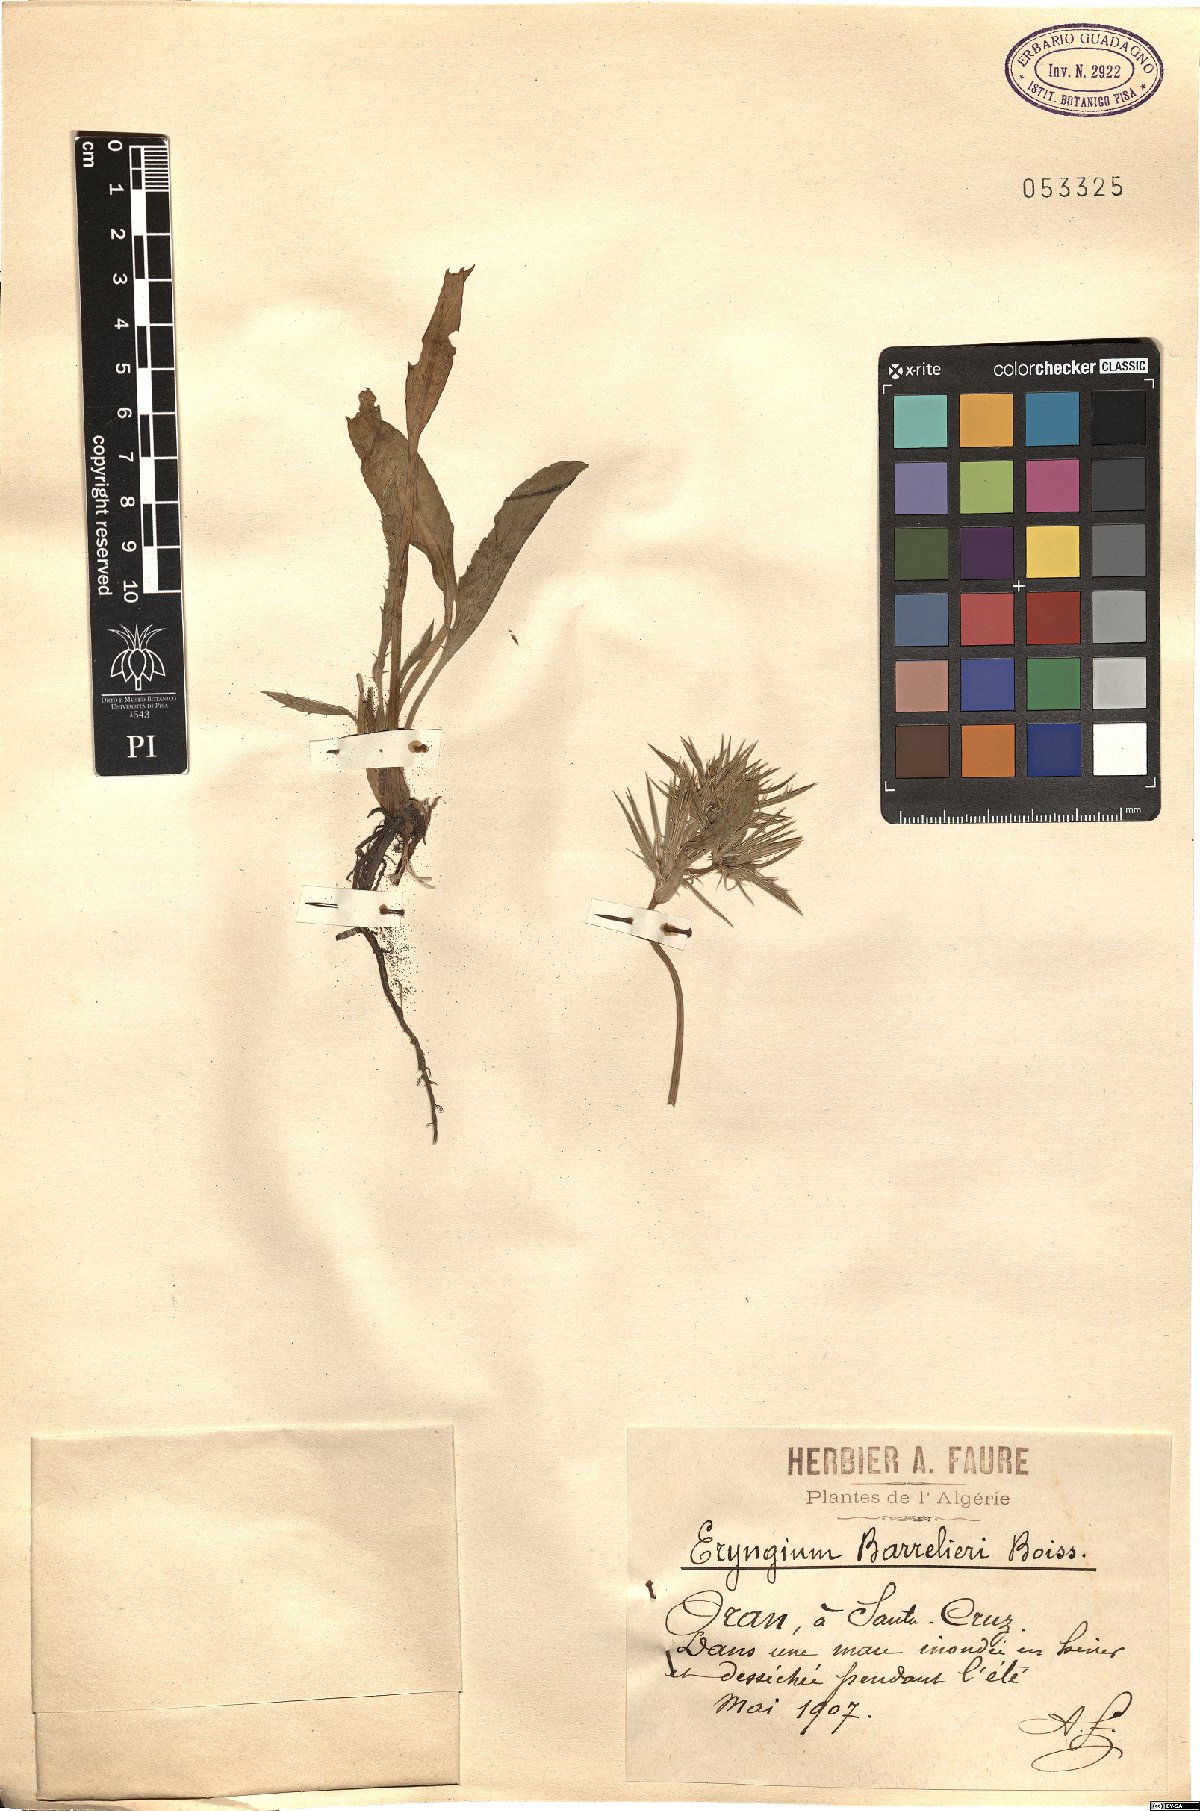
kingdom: Plantae
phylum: Tracheophyta
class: Magnoliopsida
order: Apiales
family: Apiaceae
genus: Eryngium
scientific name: Eryngium pusillum
